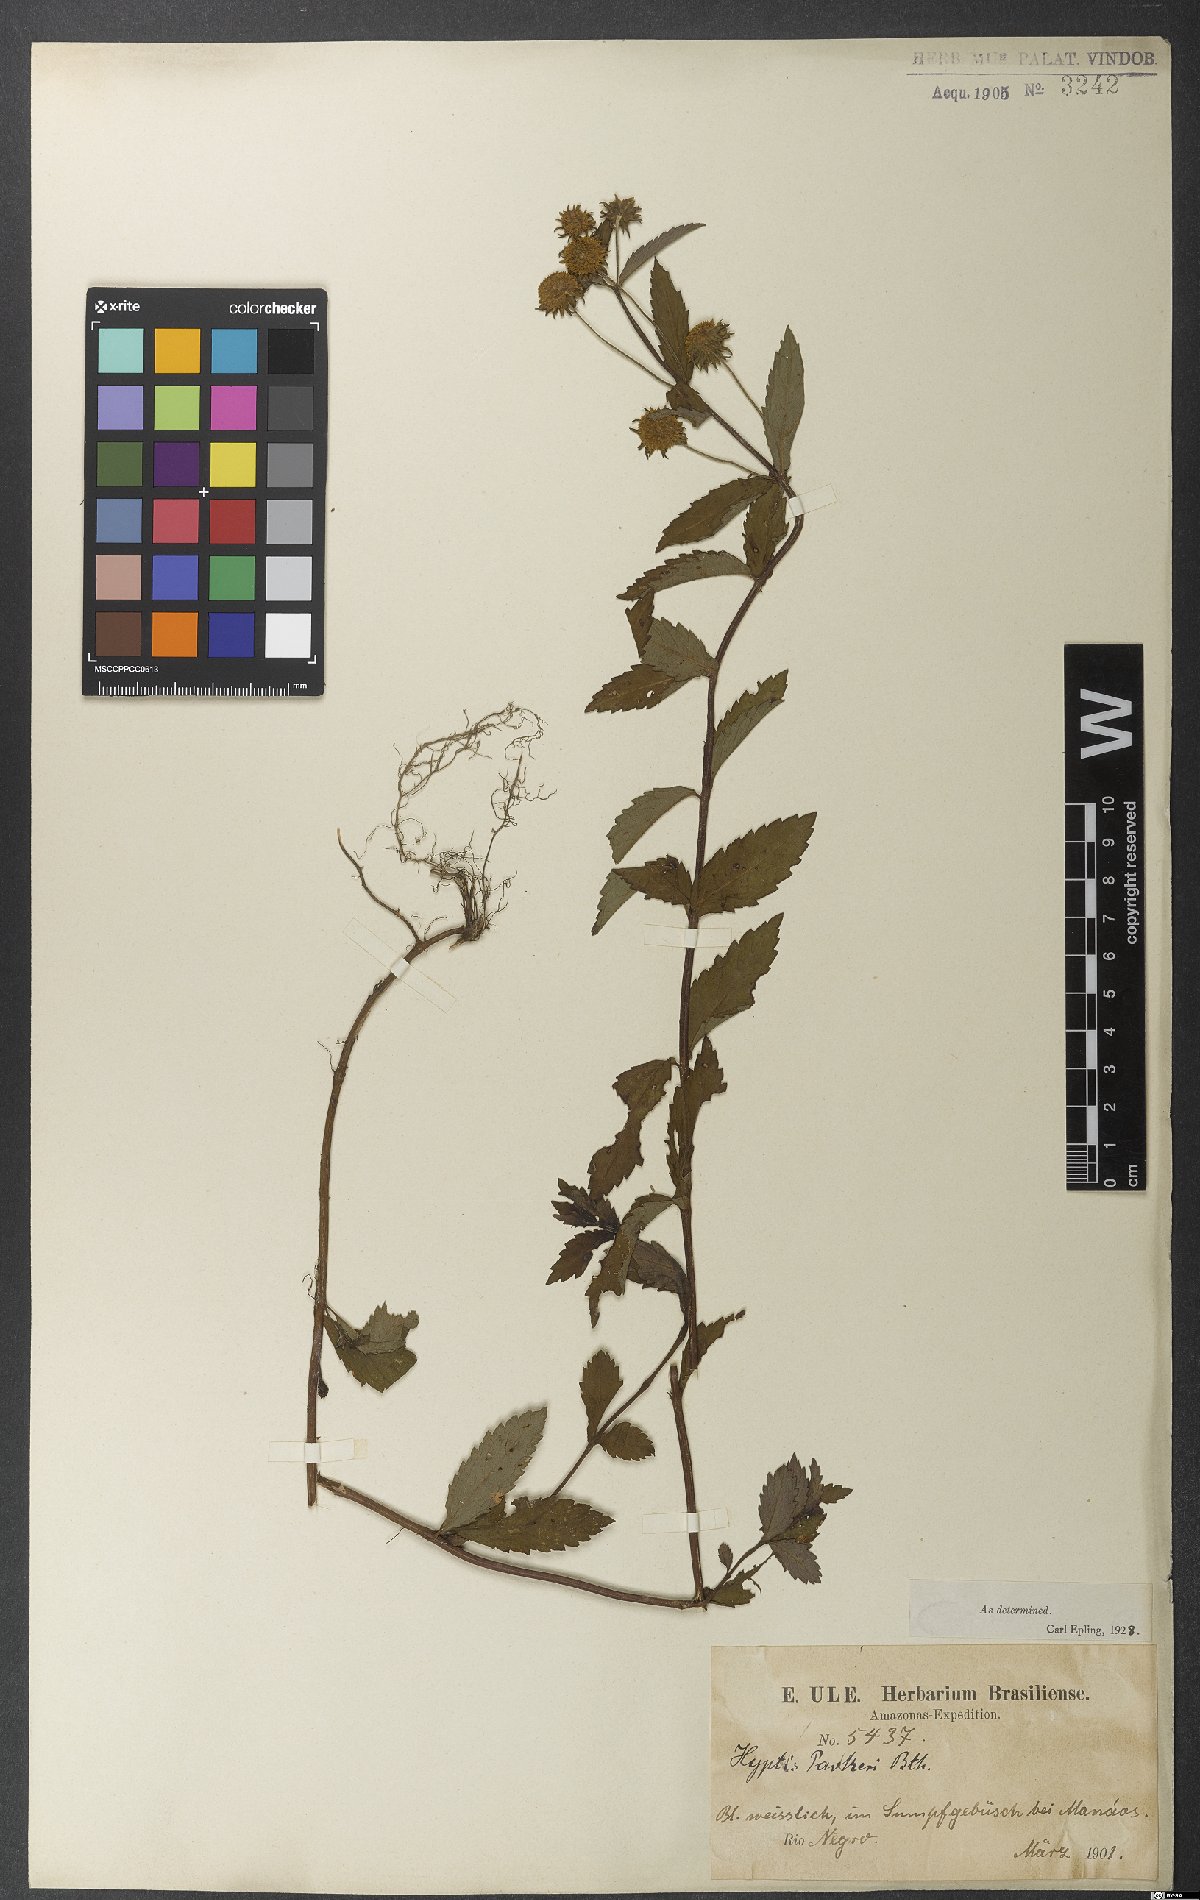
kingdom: Plantae
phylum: Tracheophyta
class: Magnoliopsida
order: Lamiales
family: Lamiaceae
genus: Hyptis
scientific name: Hyptis parkeri
